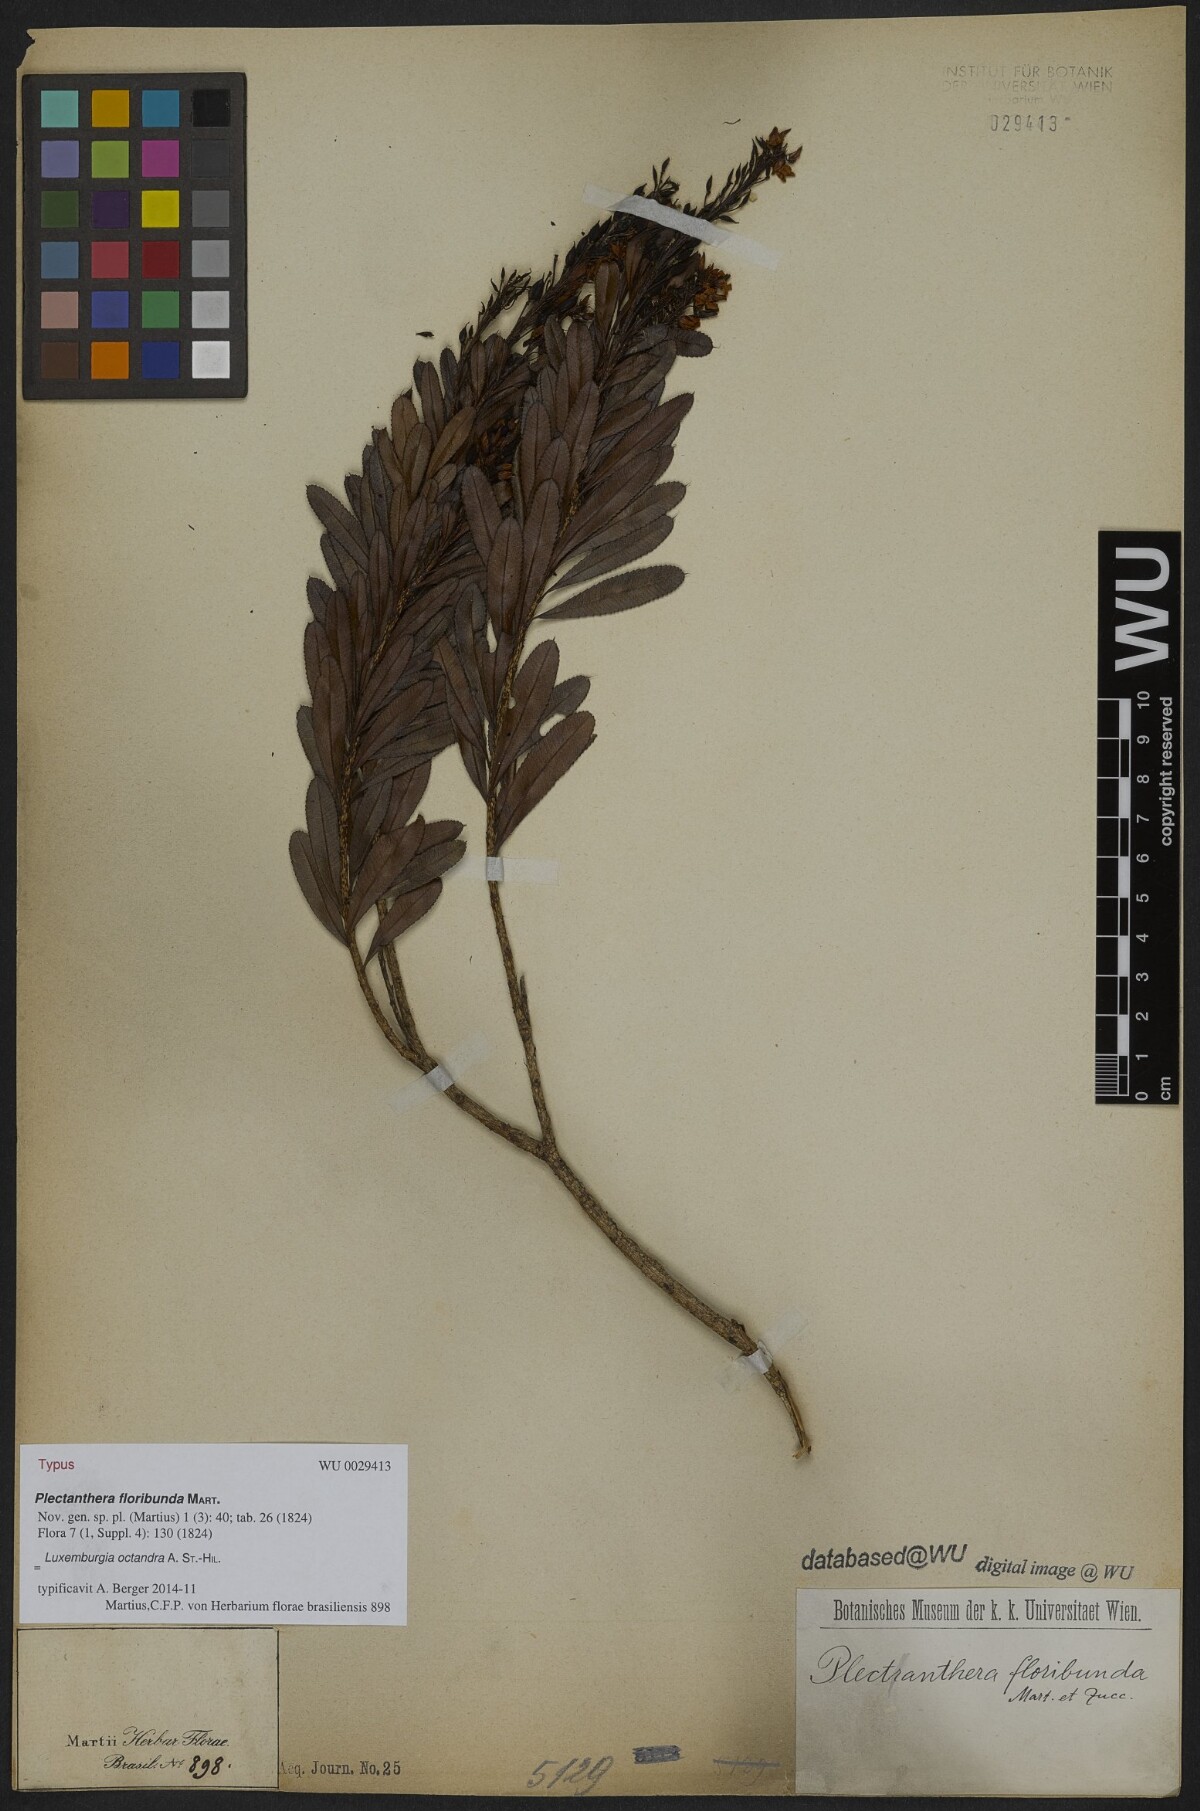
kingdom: Plantae
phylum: Tracheophyta
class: Magnoliopsida
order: Malpighiales
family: Ochnaceae
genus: Luxemburgia
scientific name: Luxemburgia speciosa
